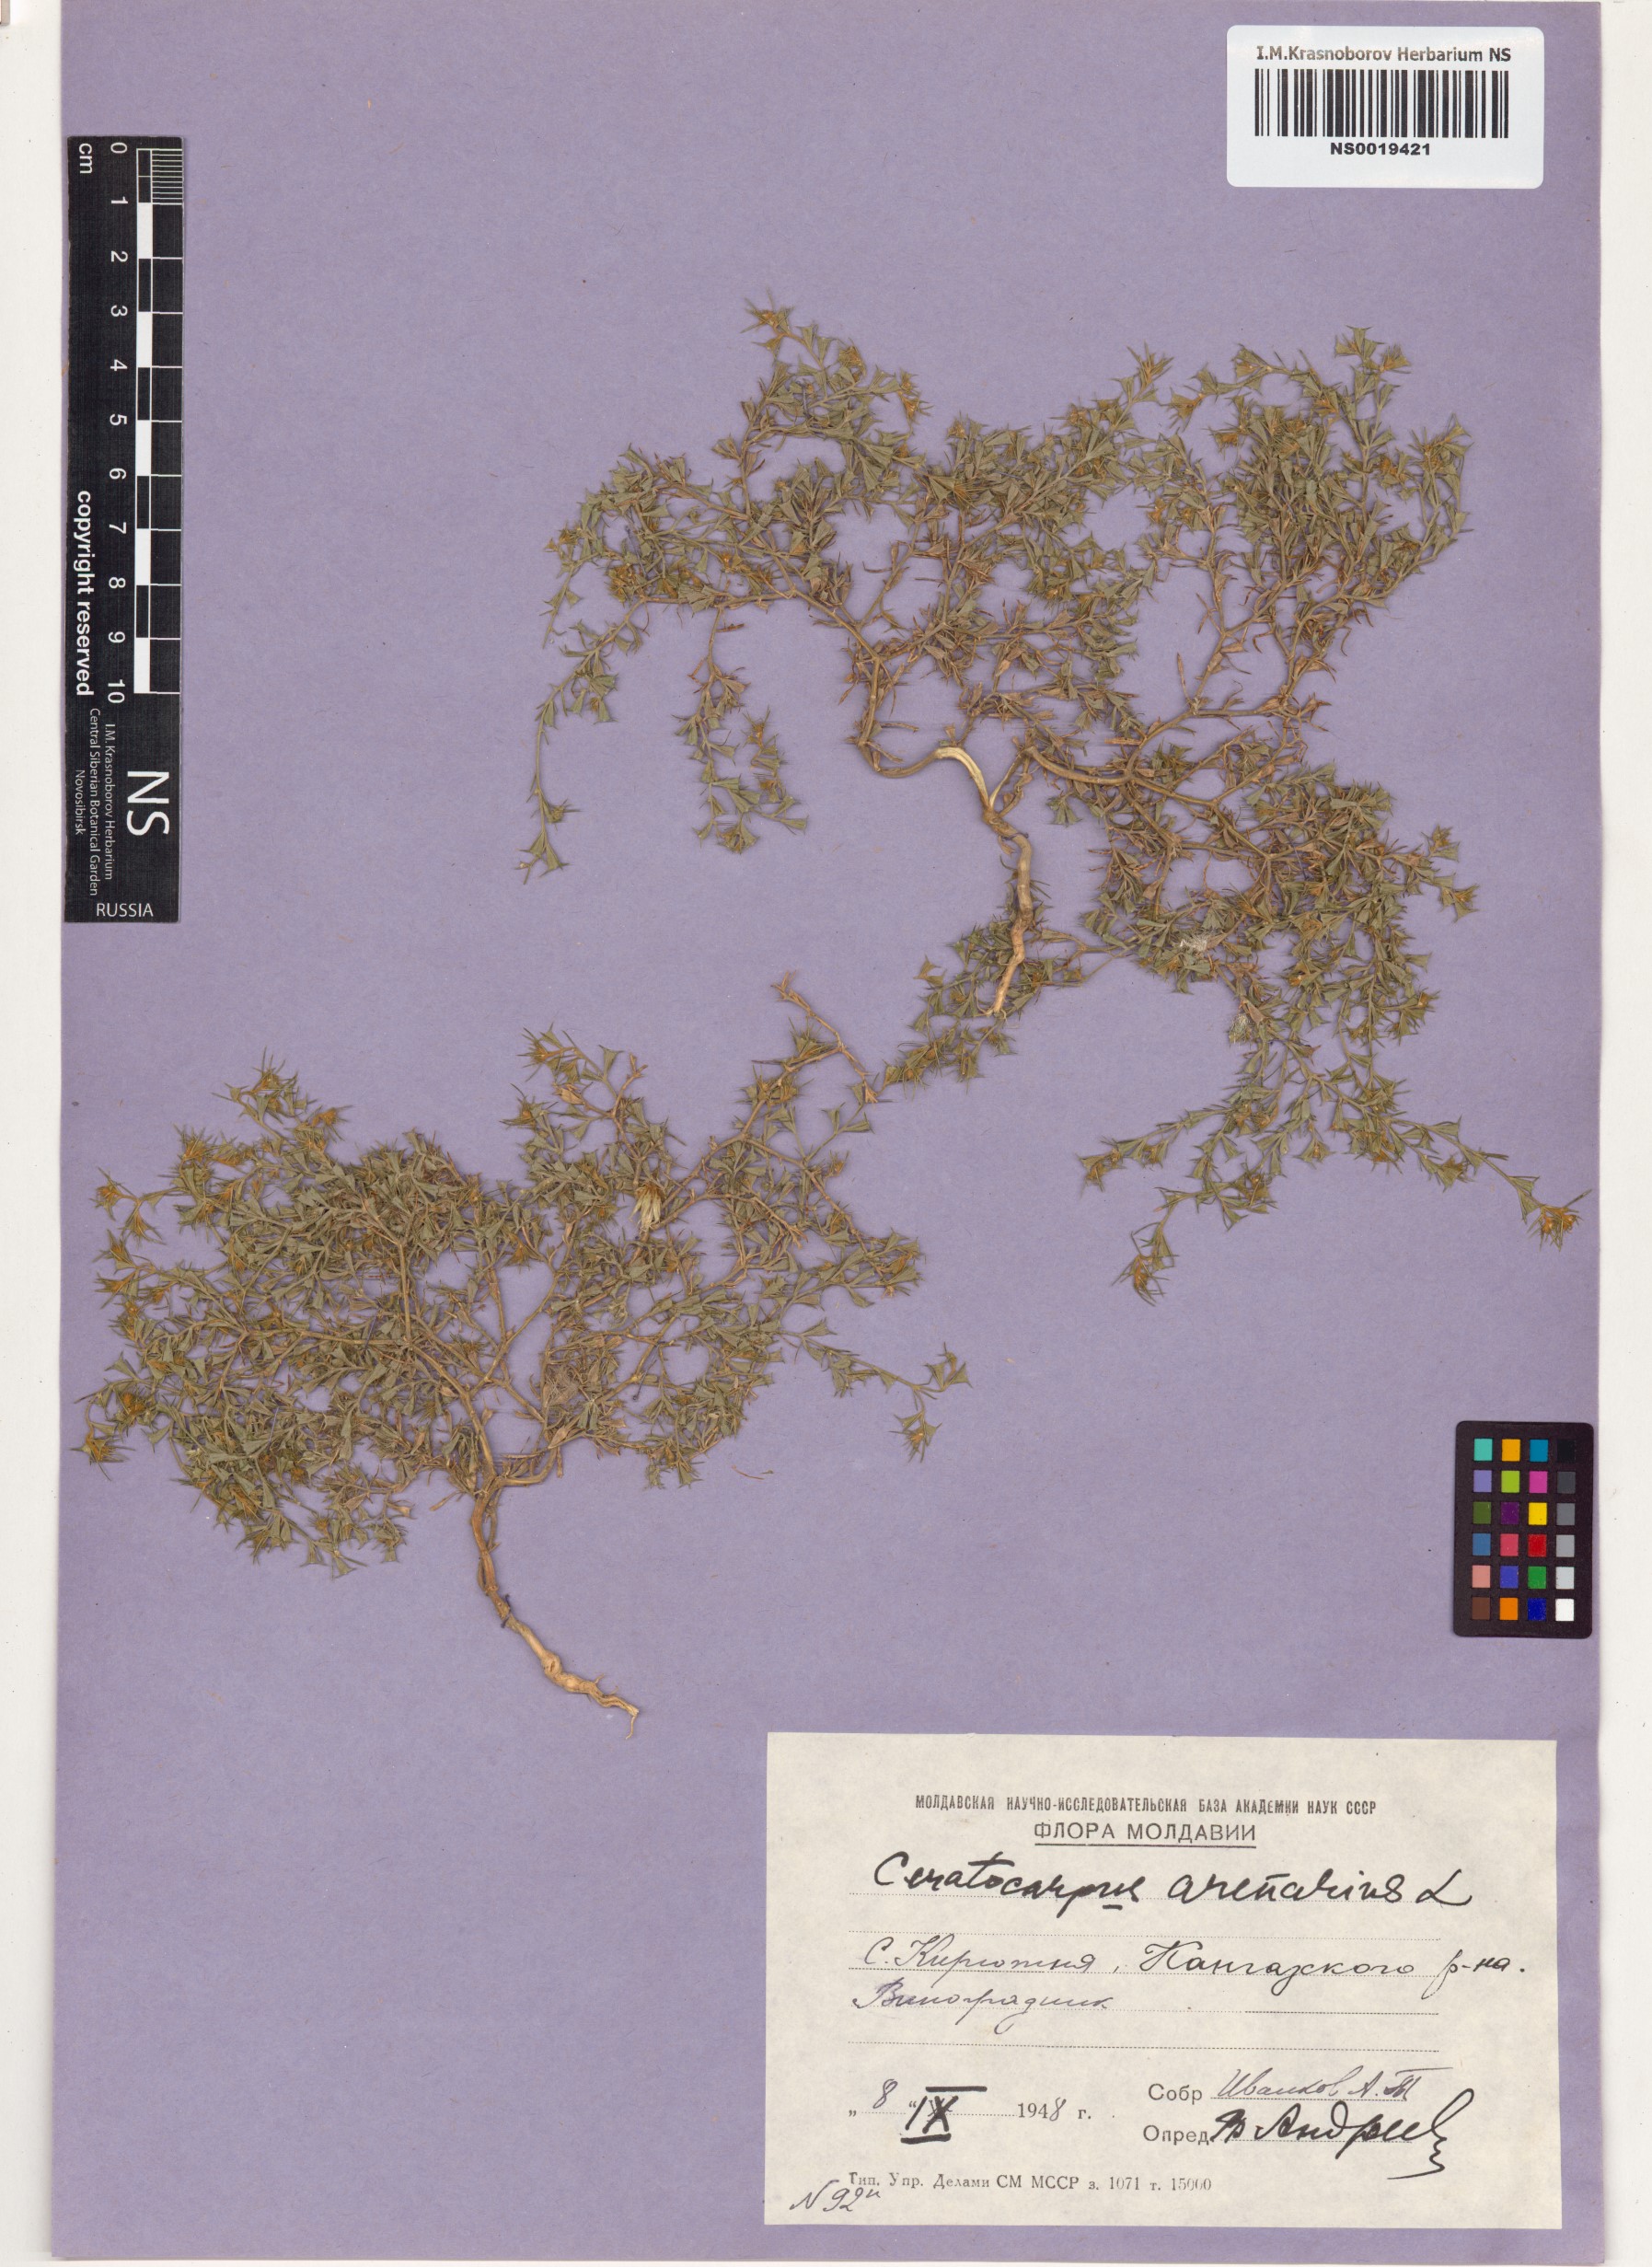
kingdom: Plantae
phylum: Tracheophyta
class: Magnoliopsida
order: Caryophyllales
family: Amaranthaceae
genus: Ceratocarpus
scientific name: Ceratocarpus arenarius
